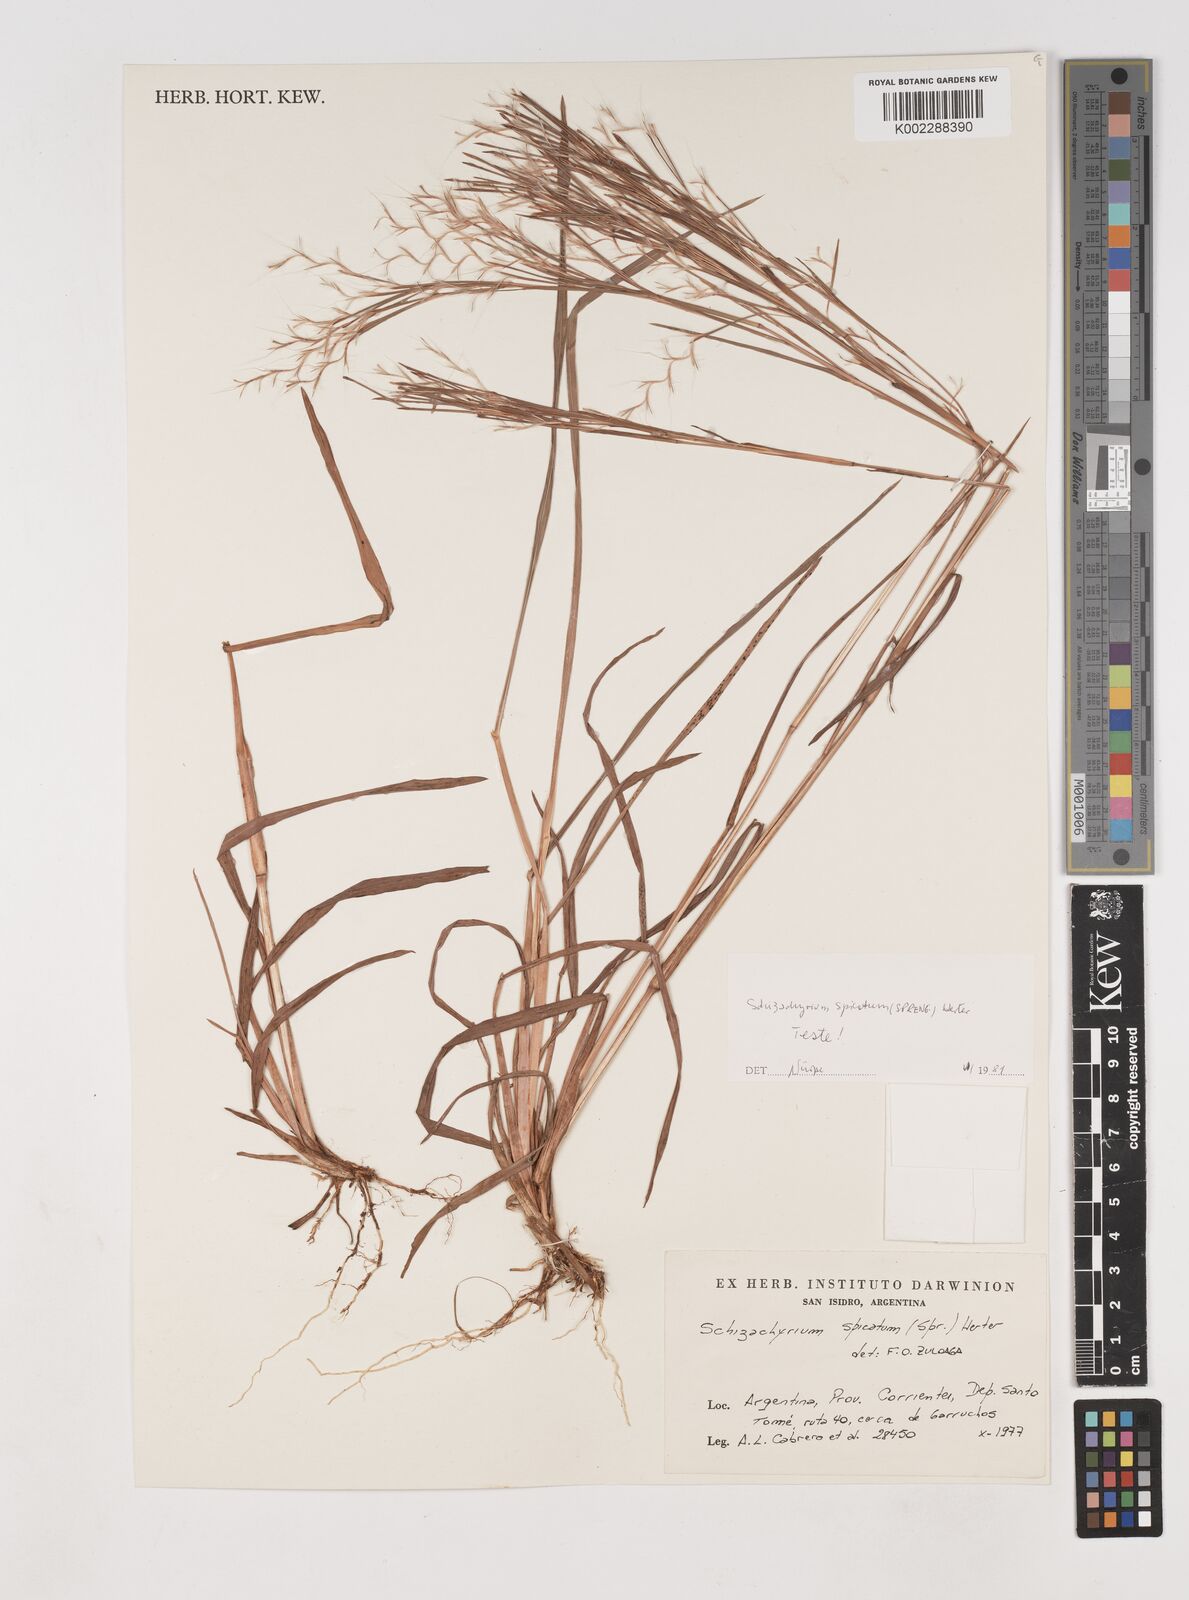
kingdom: Plantae
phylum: Tracheophyta
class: Liliopsida
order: Poales
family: Poaceae
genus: Schizachyrium
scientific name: Schizachyrium spicatum
